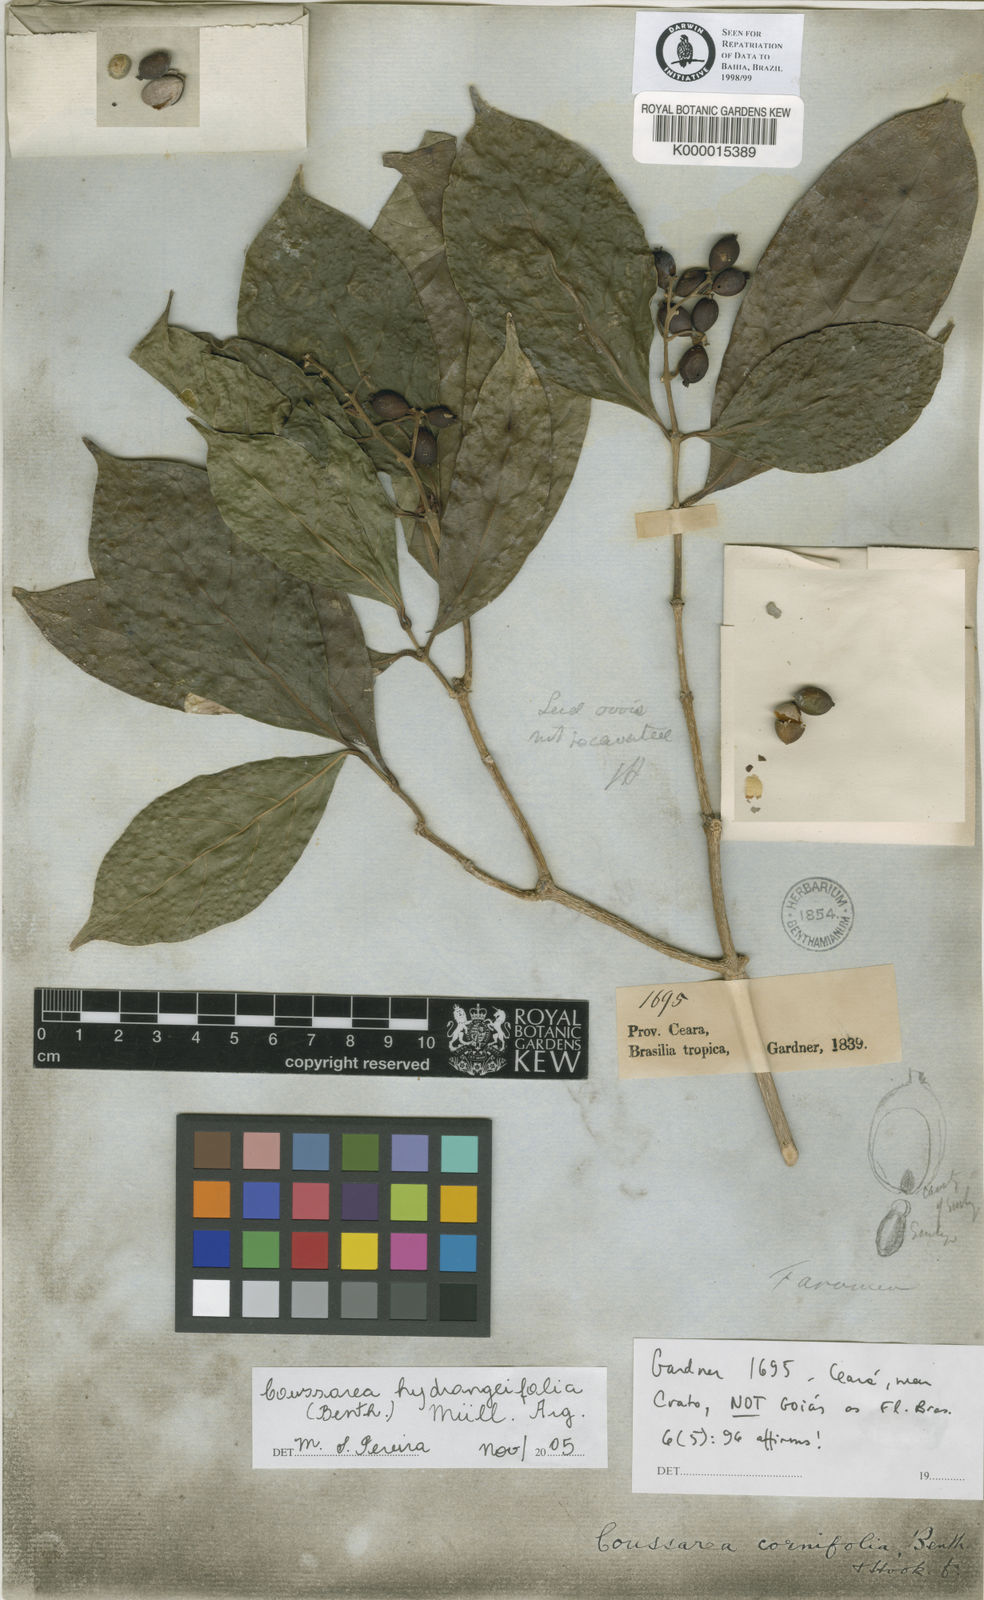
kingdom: Plantae
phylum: Tracheophyta
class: Magnoliopsida
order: Gentianales
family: Rubiaceae
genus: Coussarea
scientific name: Coussarea
